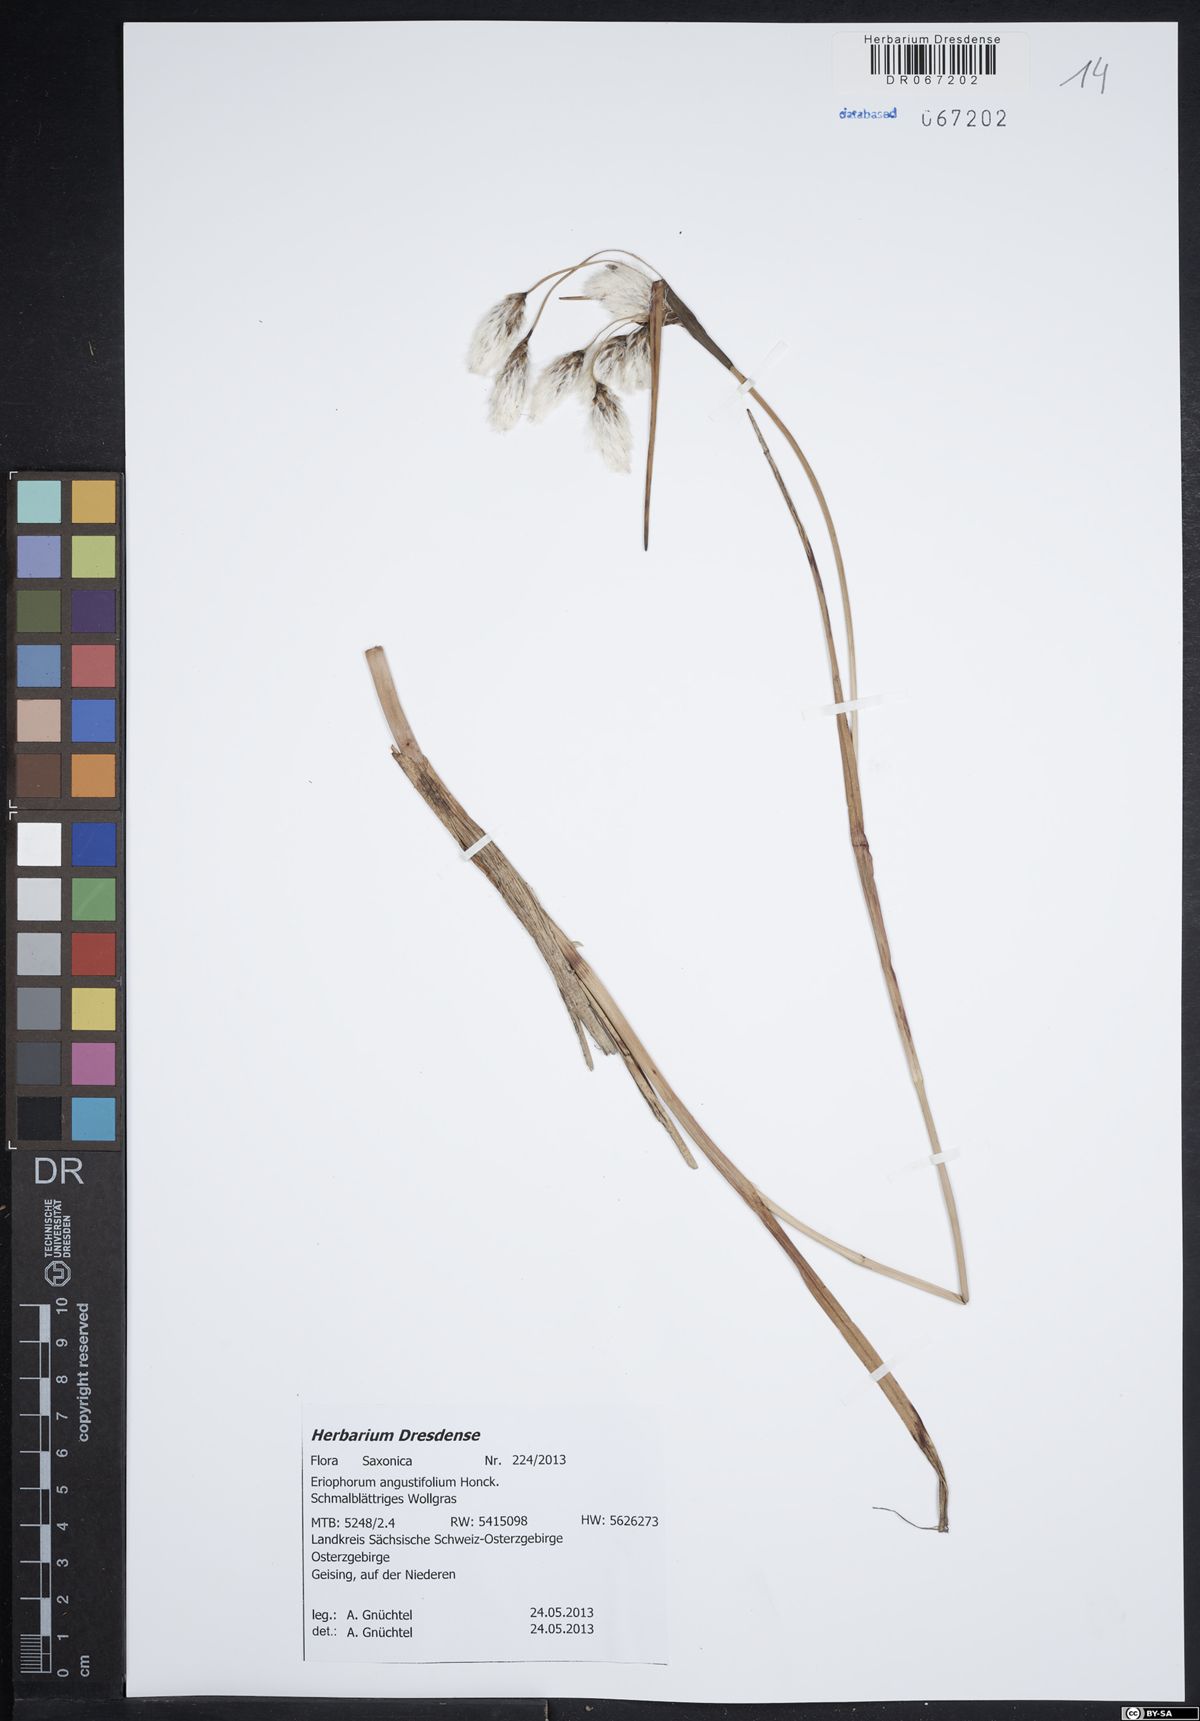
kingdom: Plantae
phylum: Tracheophyta
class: Liliopsida
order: Poales
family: Cyperaceae
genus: Eriophorum
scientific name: Eriophorum angustifolium
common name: Common cottongrass
